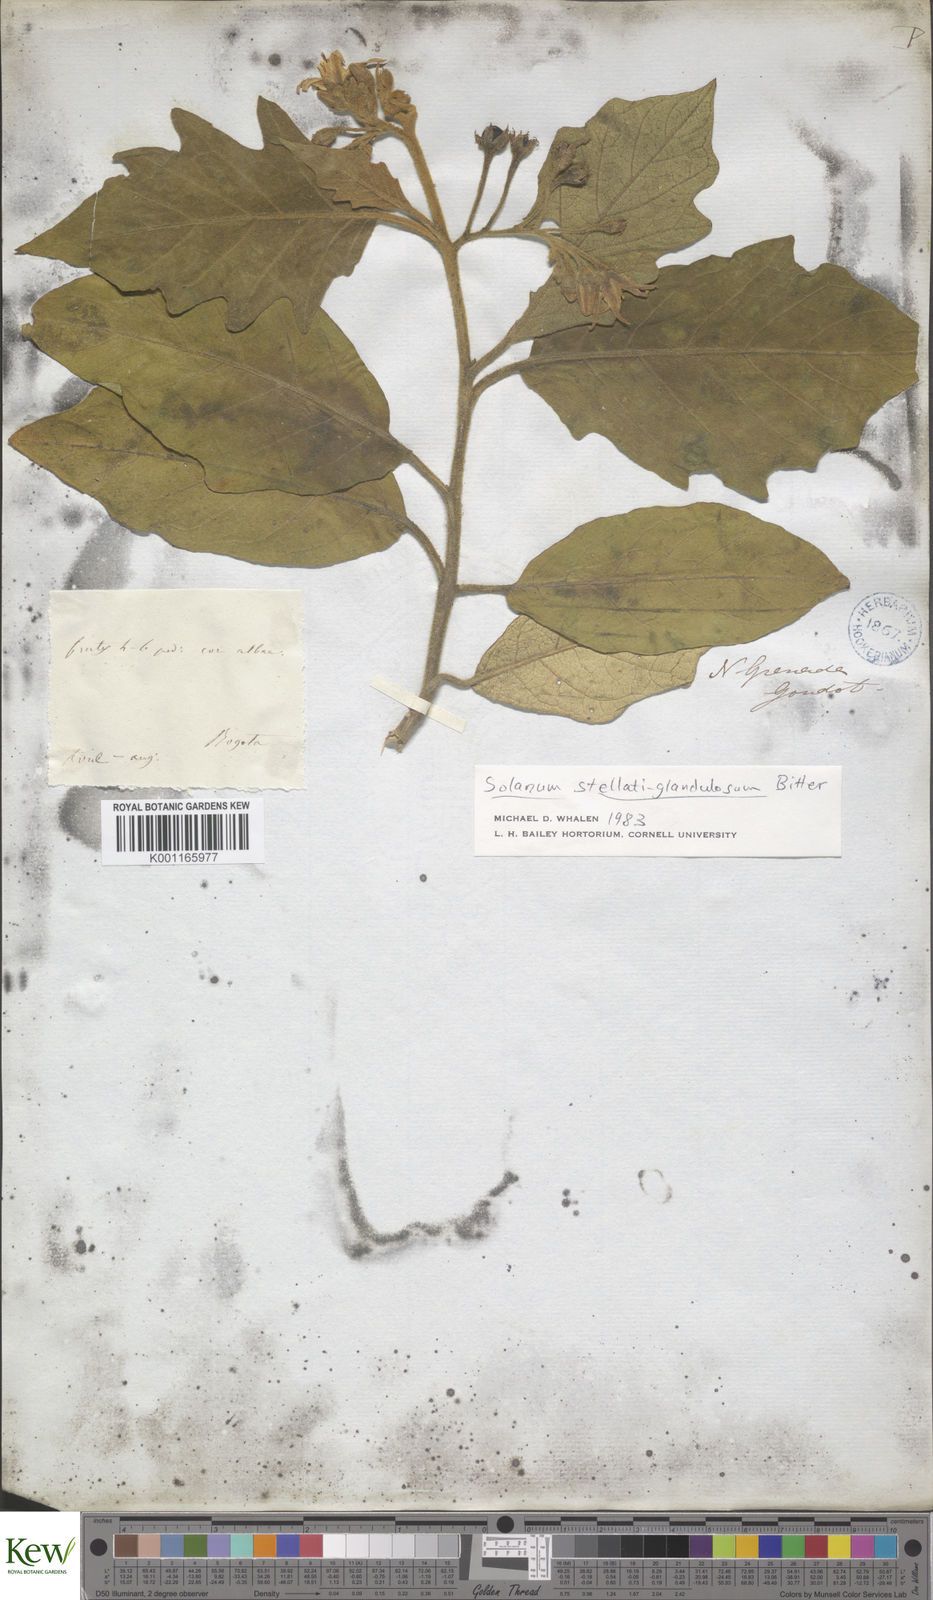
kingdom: Plantae
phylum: Tracheophyta
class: Magnoliopsida
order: Solanales
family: Solanaceae
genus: Solanum
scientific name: Solanum stellatiglandulosum
